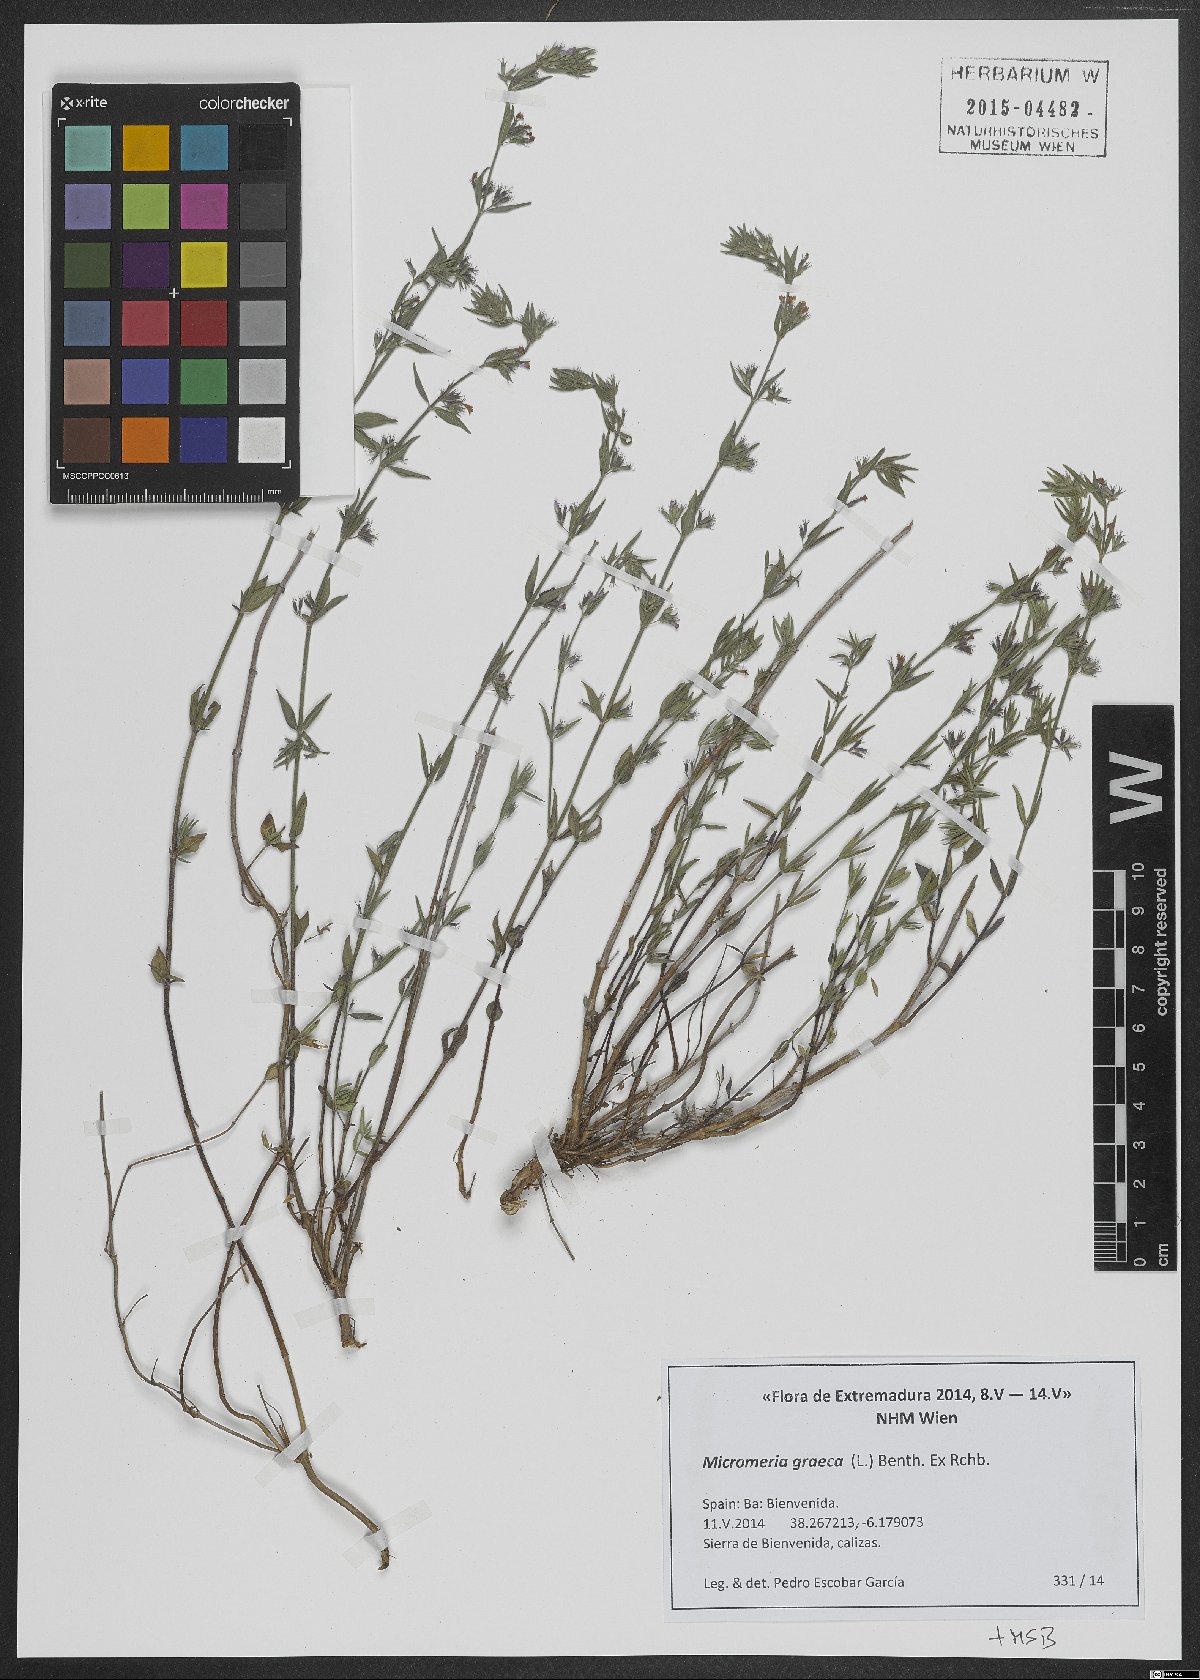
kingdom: Plantae
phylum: Tracheophyta
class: Magnoliopsida
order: Lamiales
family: Lamiaceae
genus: Micromeria
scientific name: Micromeria graeca
